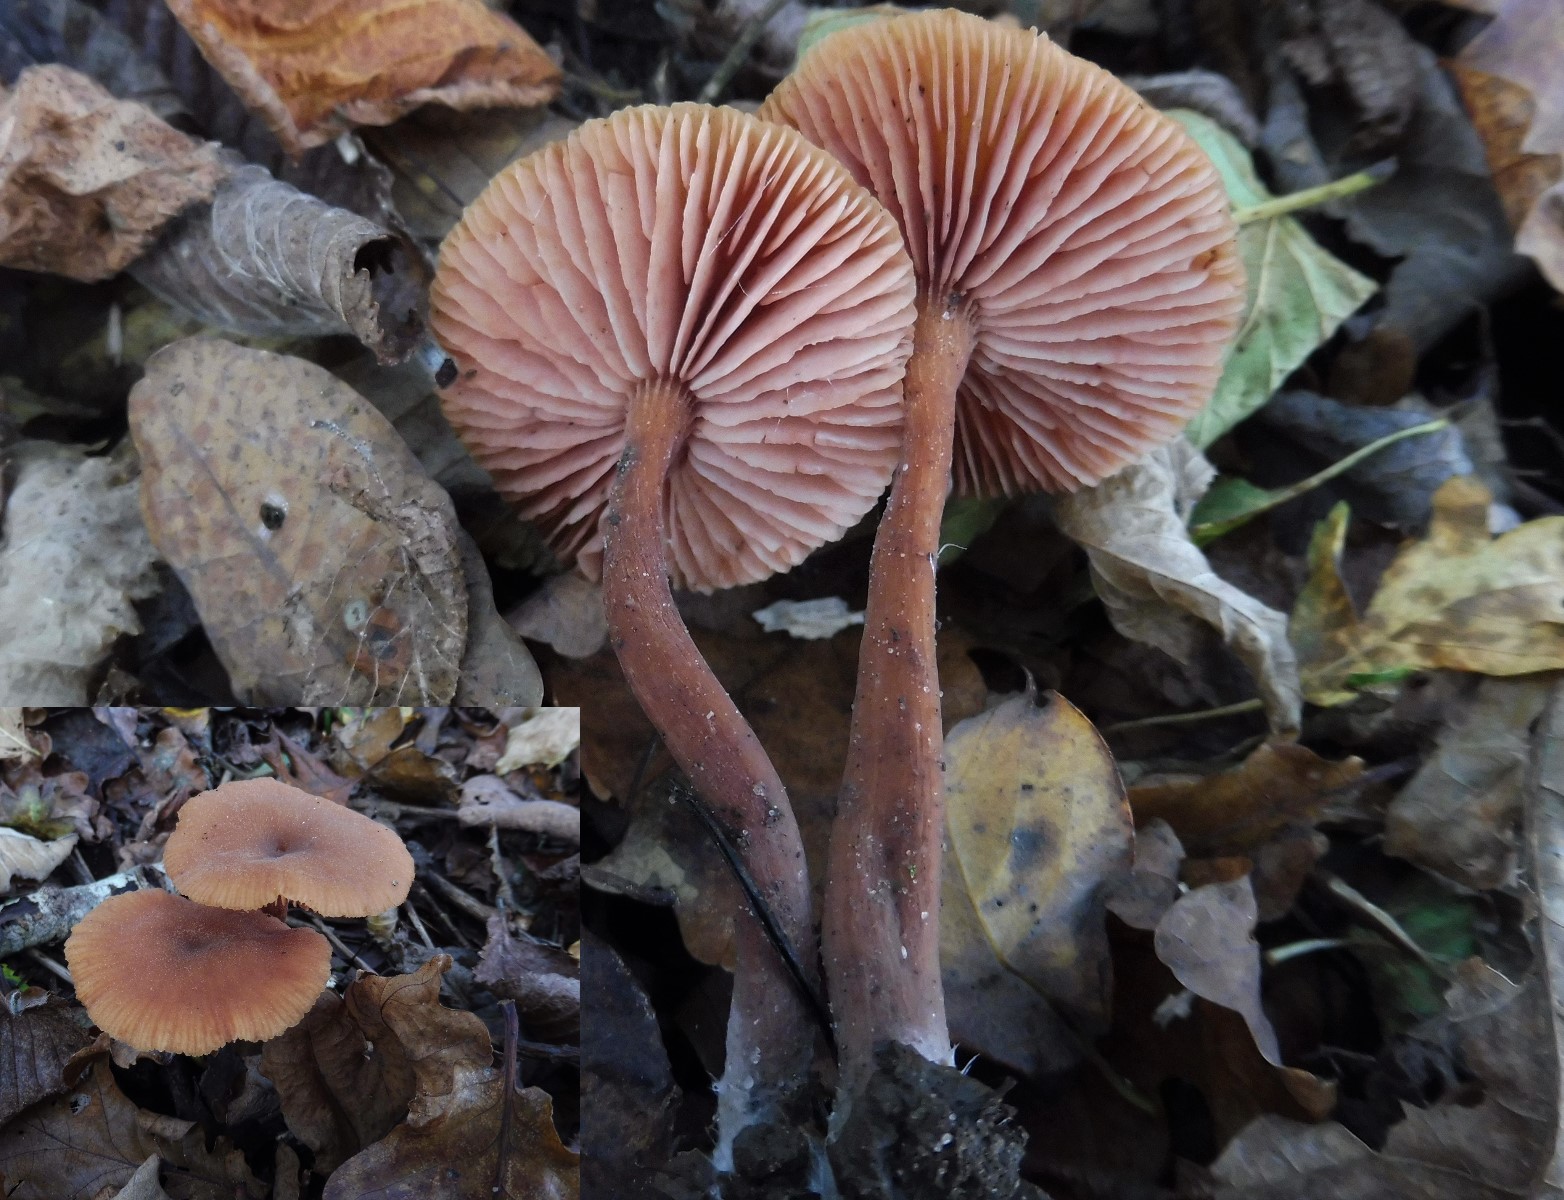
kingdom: Fungi
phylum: Basidiomycota
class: Agaricomycetes
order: Agaricales
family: Hydnangiaceae
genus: Laccaria
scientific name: Laccaria proxima
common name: stor ametysthat
